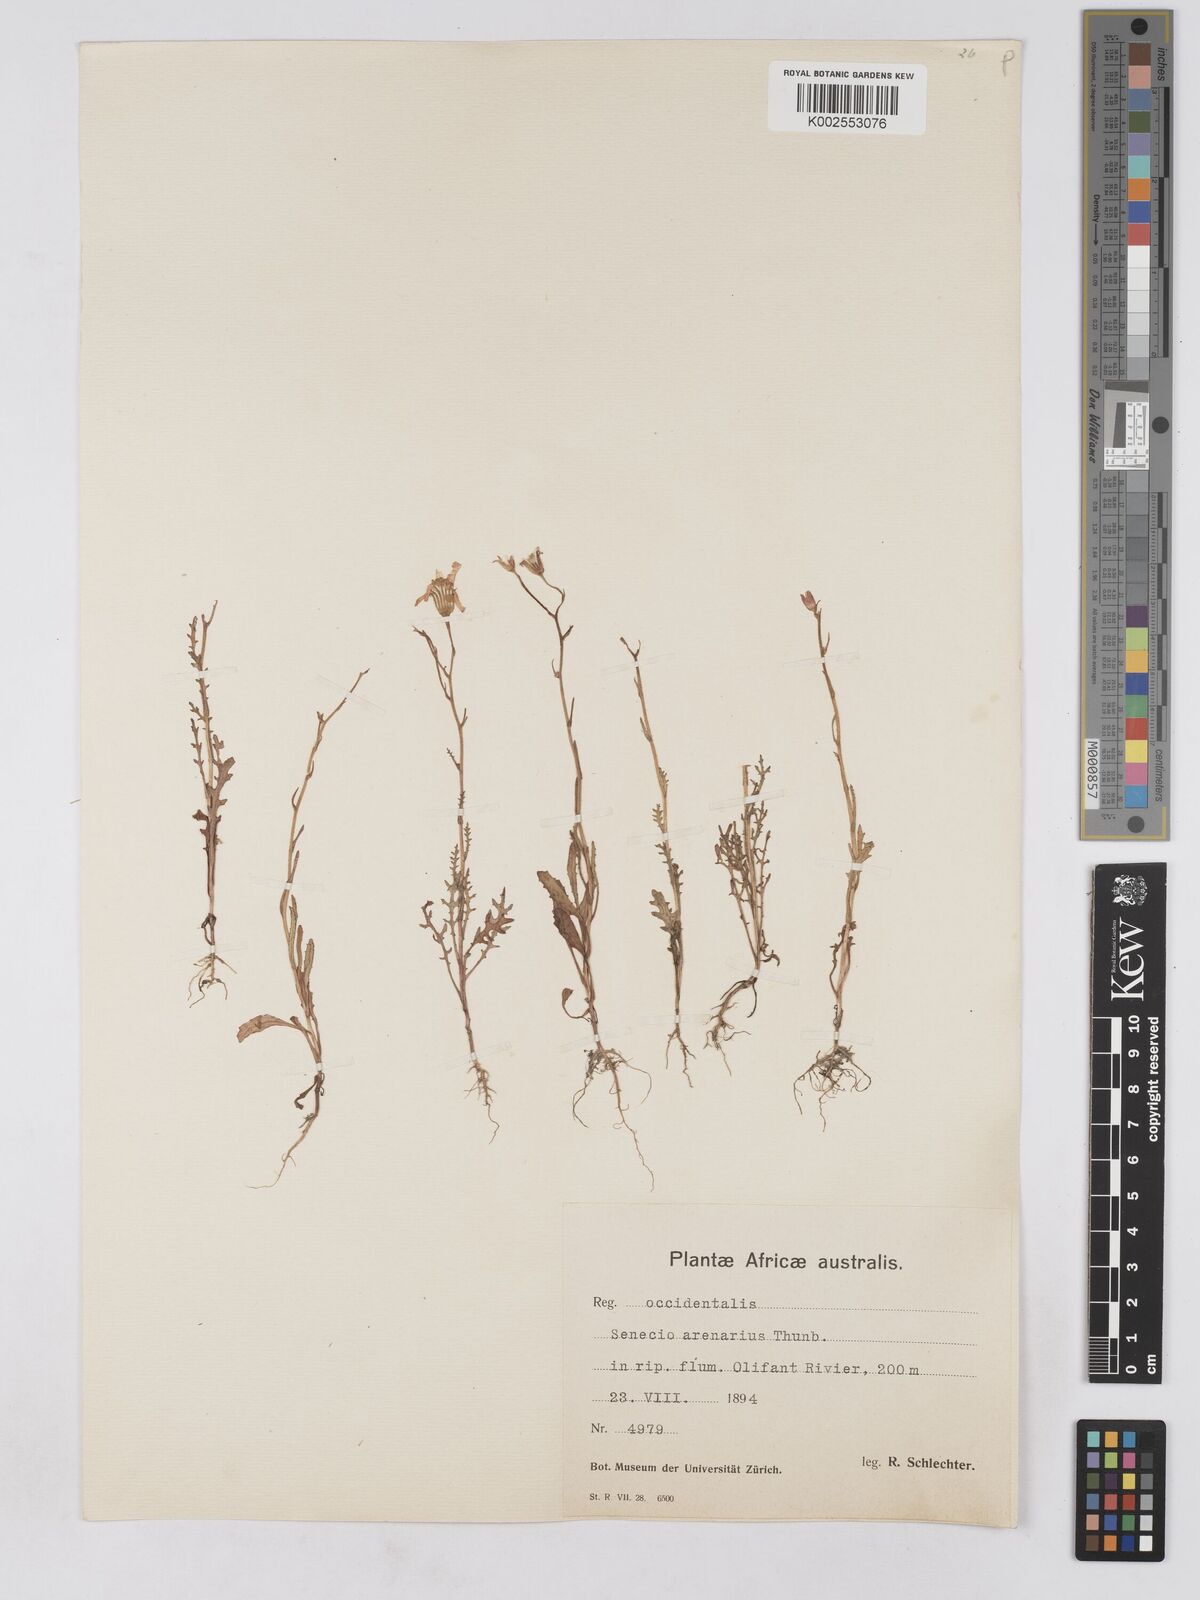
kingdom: Plantae
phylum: Tracheophyta
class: Magnoliopsida
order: Asterales
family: Asteraceae
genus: Senecio
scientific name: Senecio arenarius
